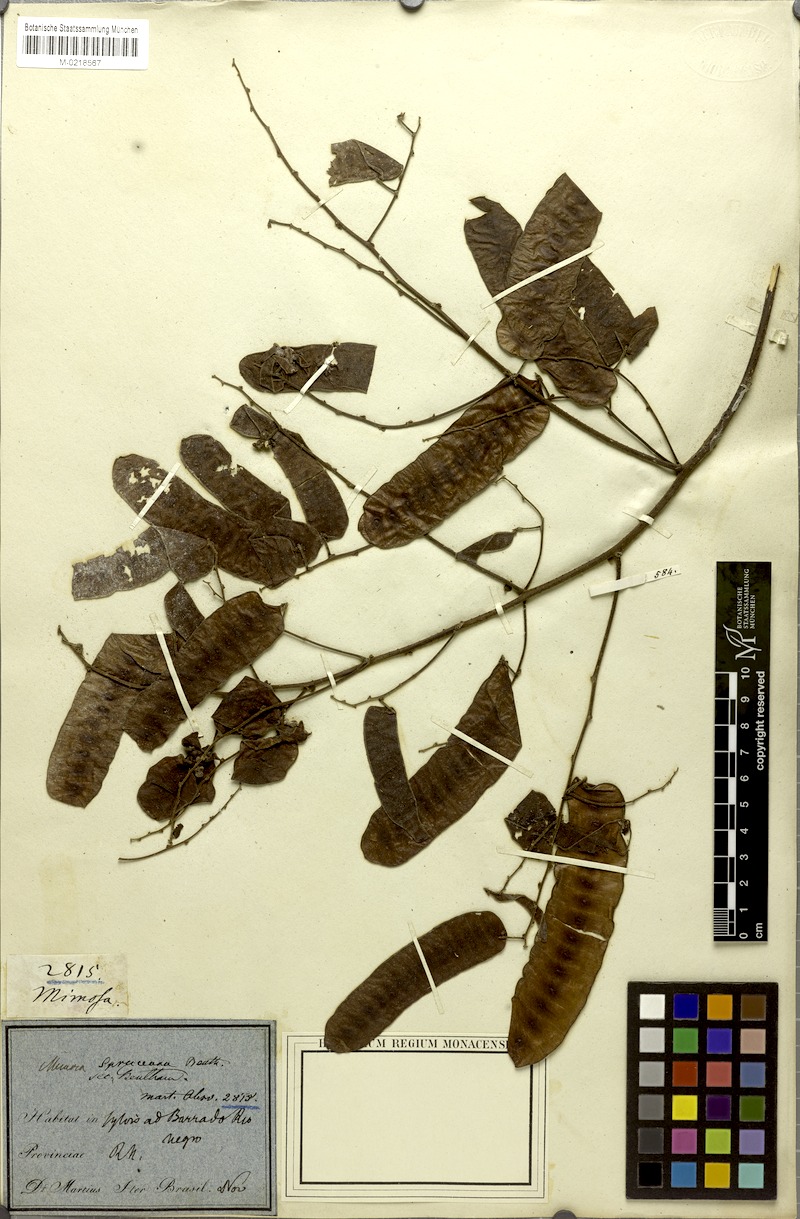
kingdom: Plantae
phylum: Tracheophyta
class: Magnoliopsida
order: Fabales
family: Fabaceae
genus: Mimosa
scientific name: Mimosa guilandinae
